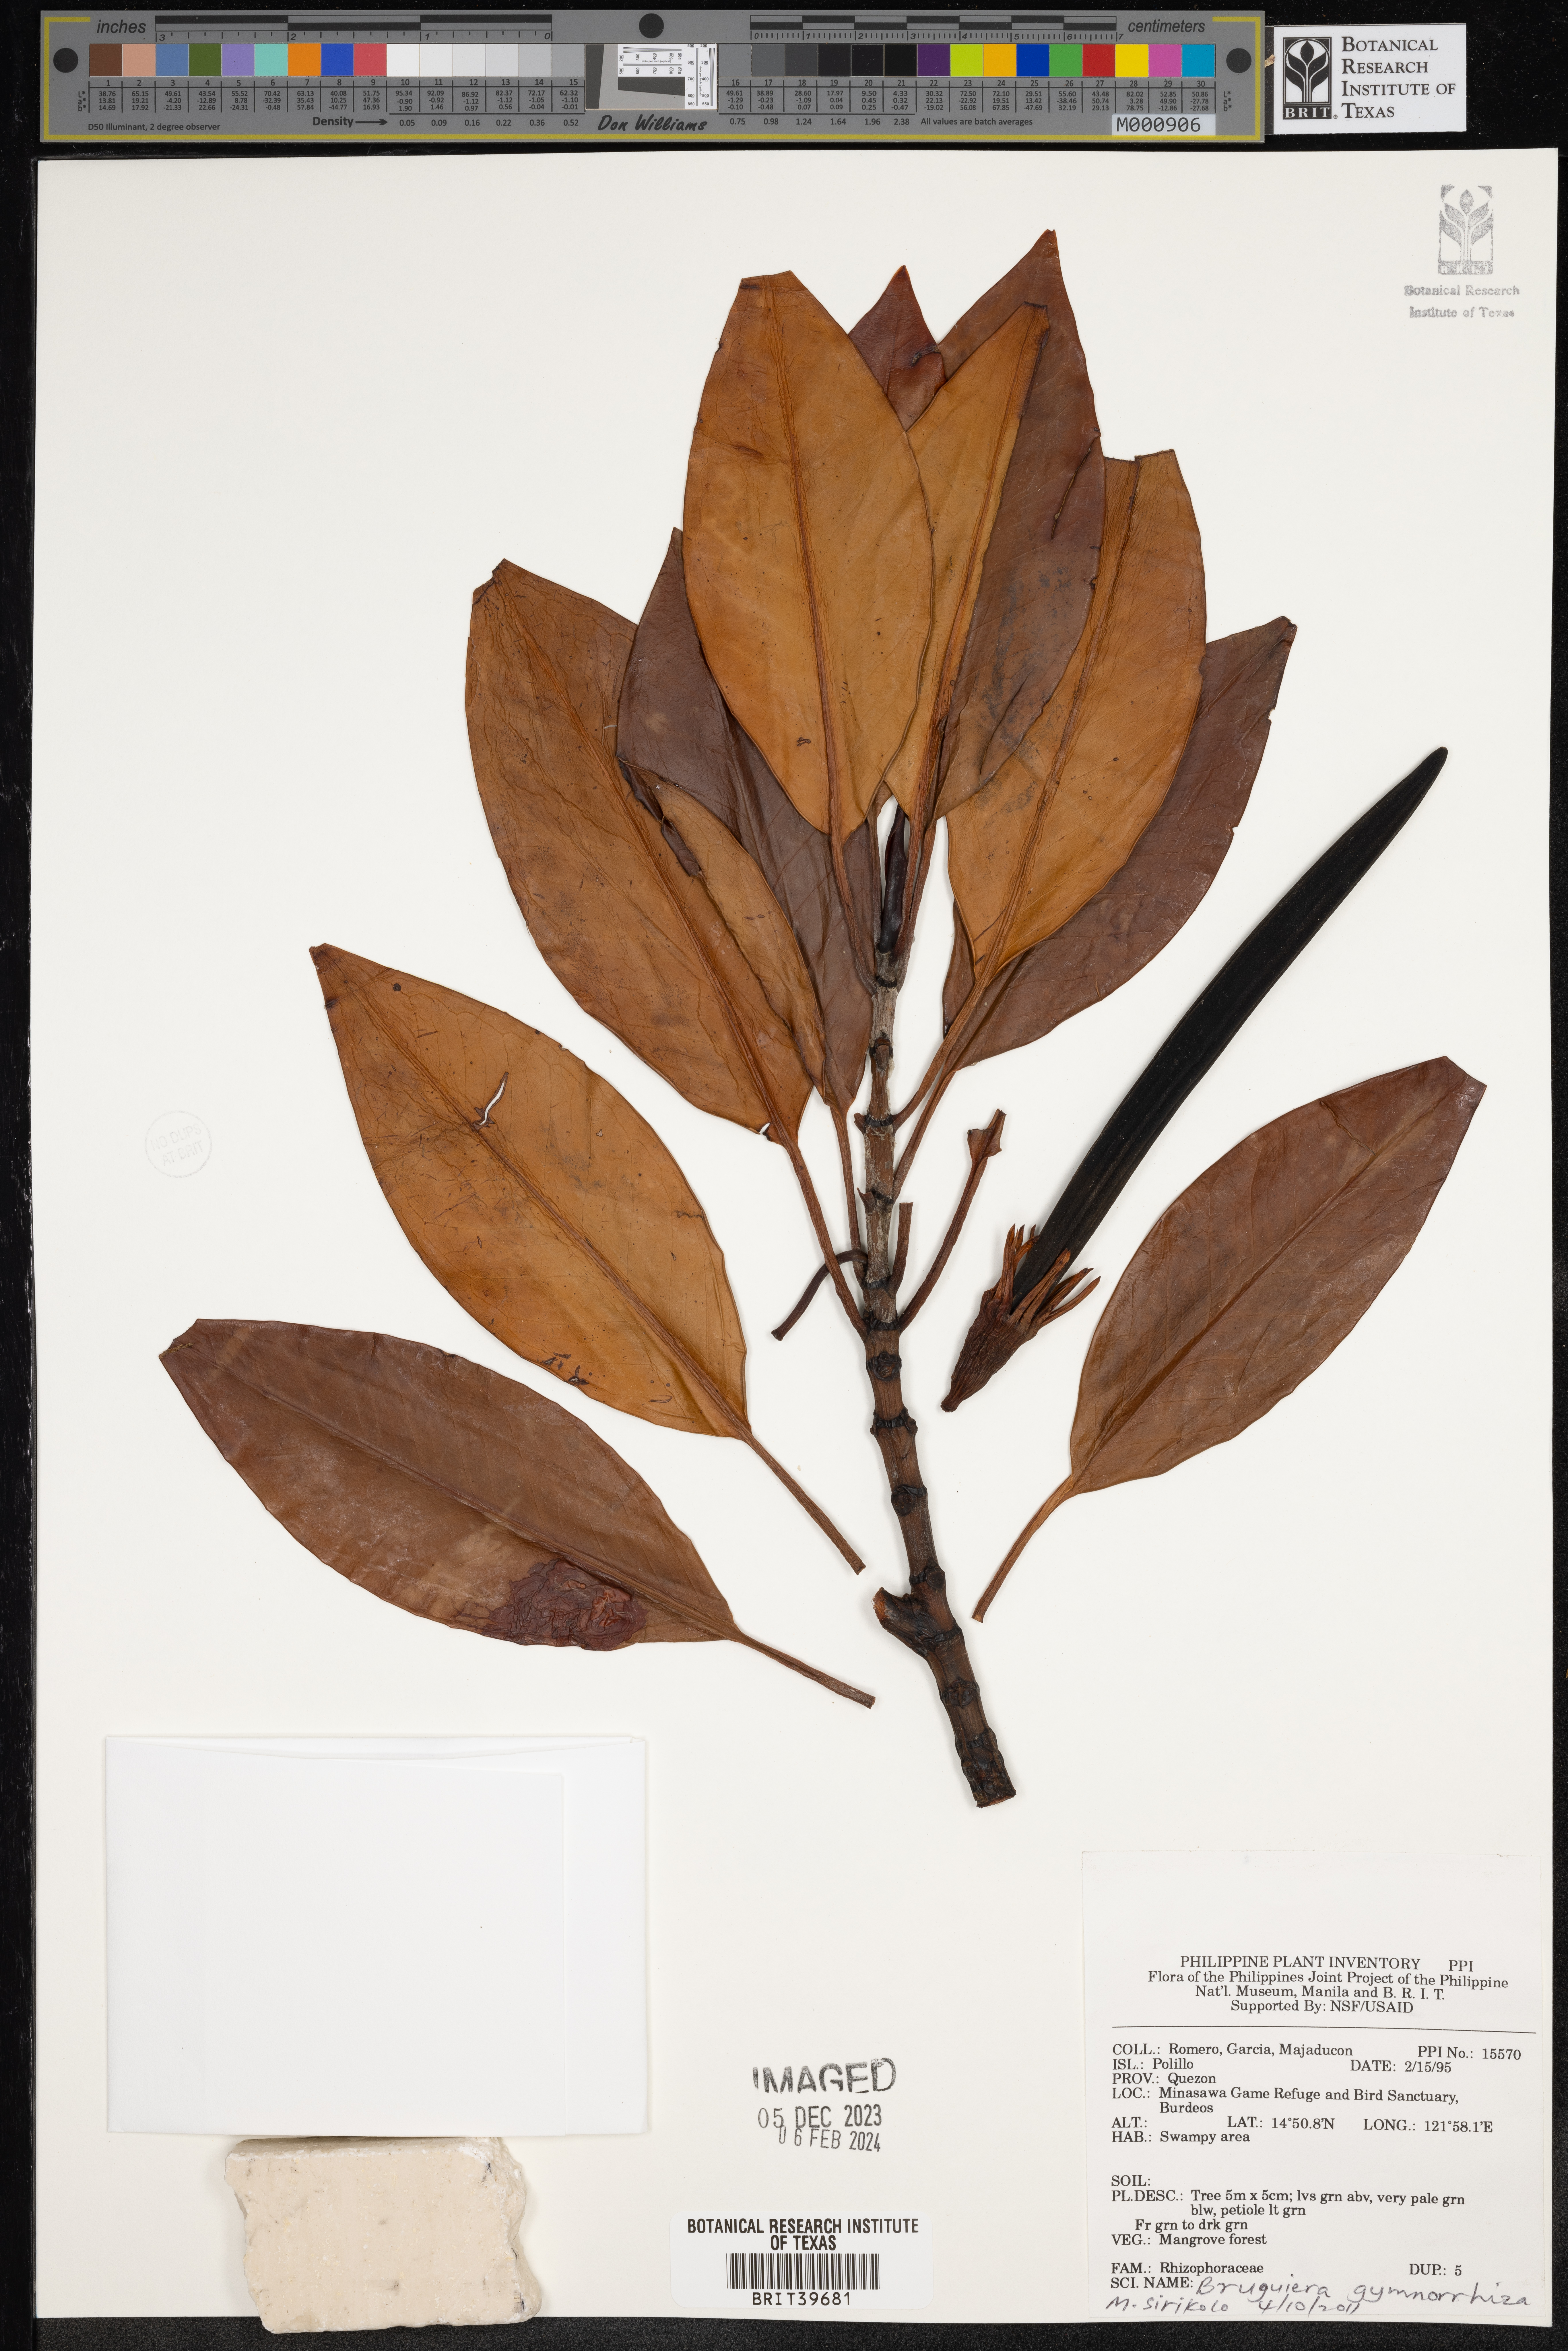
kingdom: Plantae
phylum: Tracheophyta
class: Magnoliopsida
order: Malpighiales
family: Rhizophoraceae
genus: Bruguiera
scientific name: Bruguiera gymnorhiza
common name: Oriental mangrove
